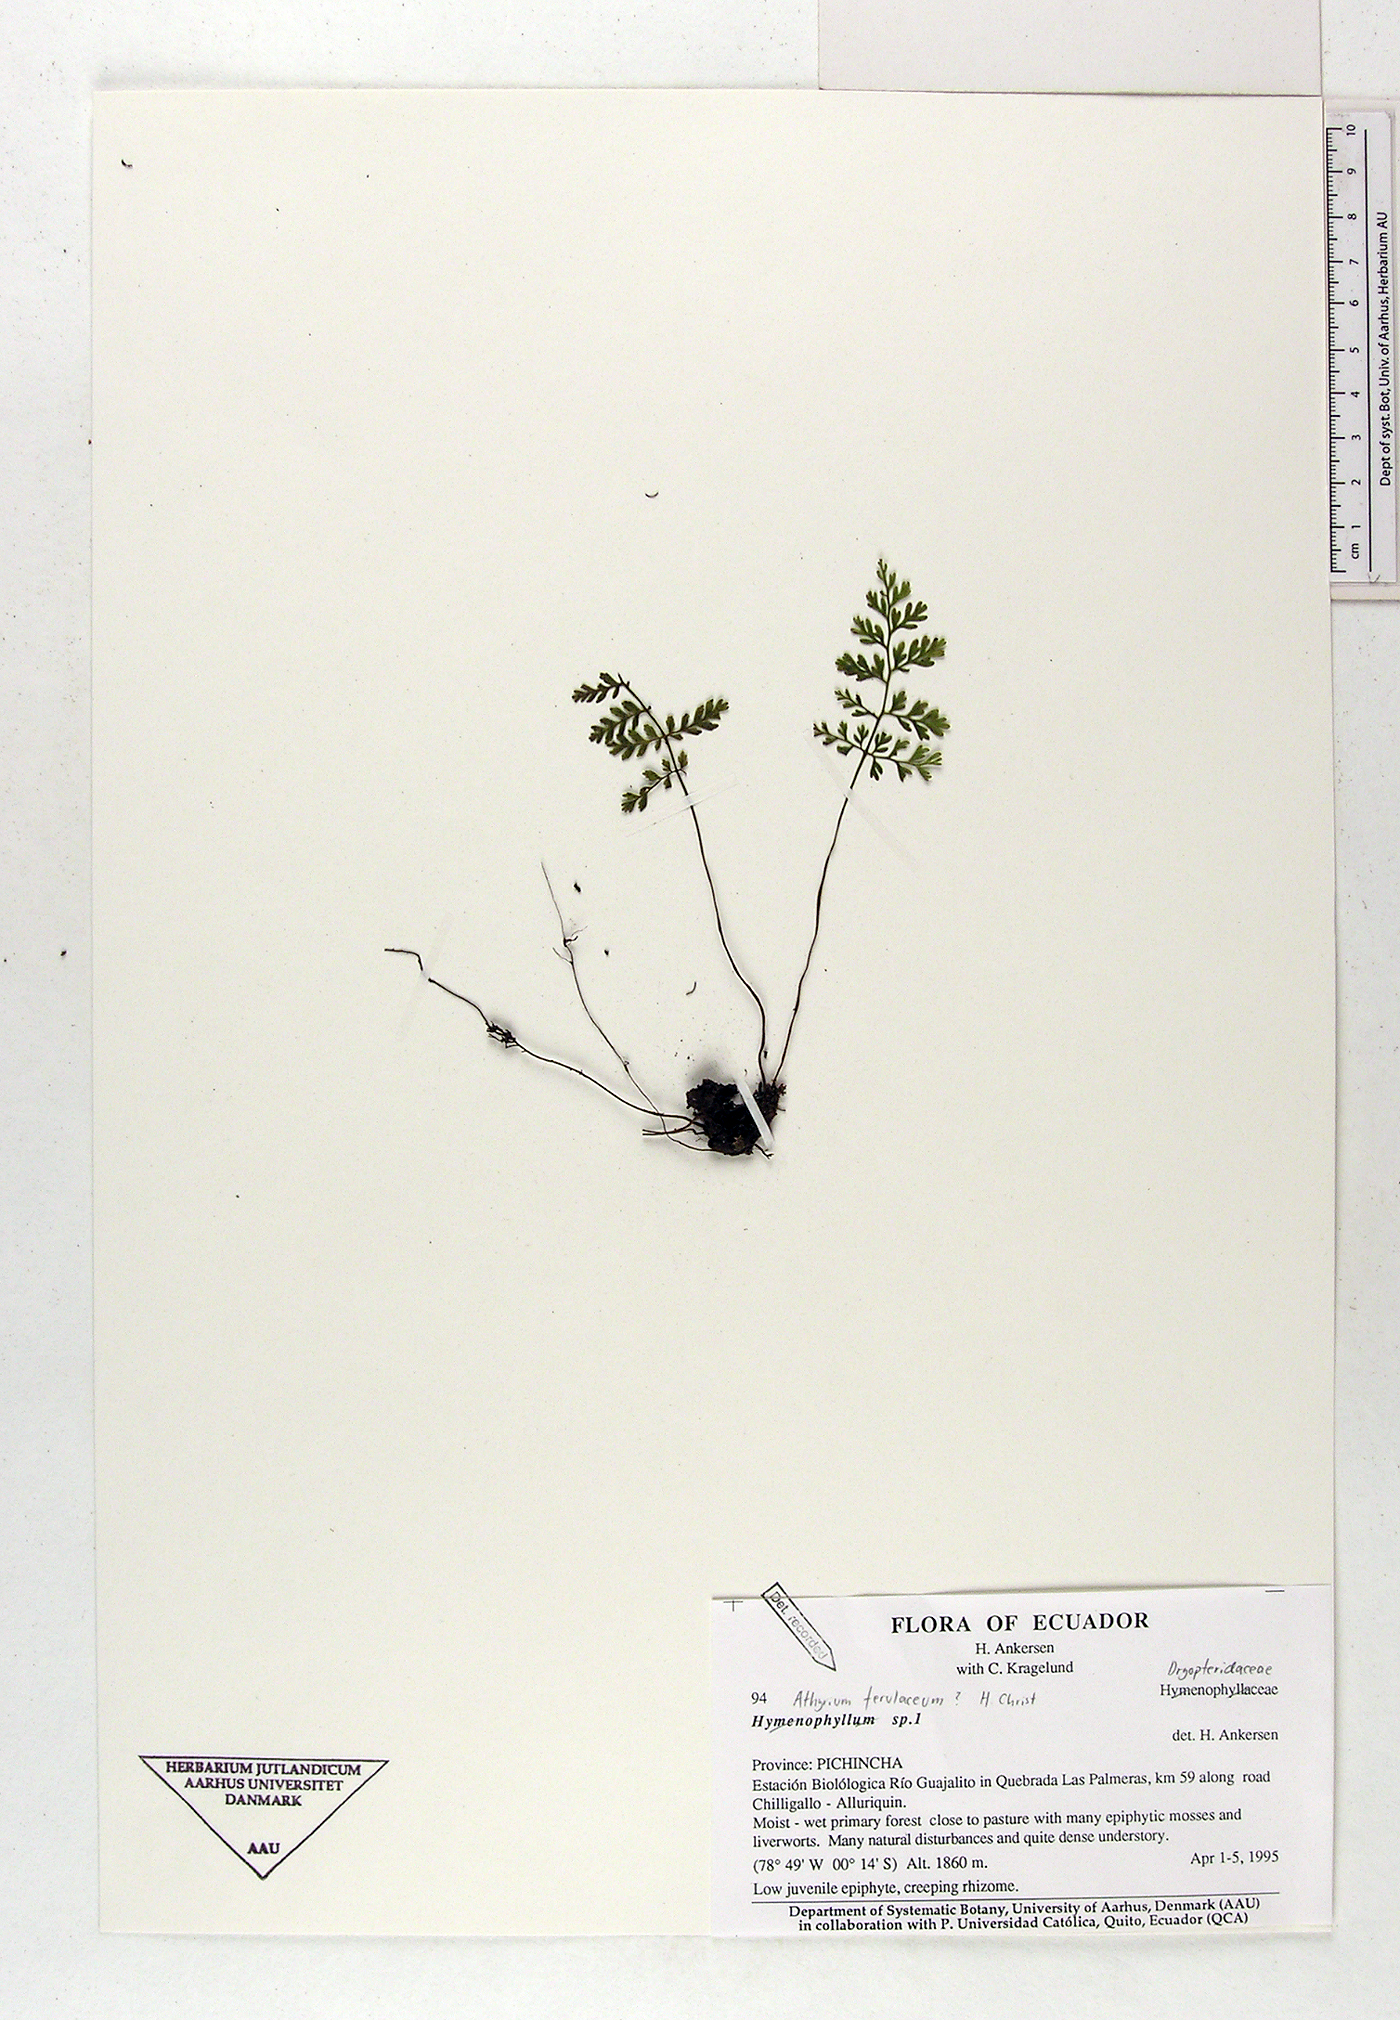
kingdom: Plantae
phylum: Tracheophyta
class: Polypodiopsida
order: Polypodiales
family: Athyriaceae
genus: Athyrium
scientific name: Athyrium ferulaceum
